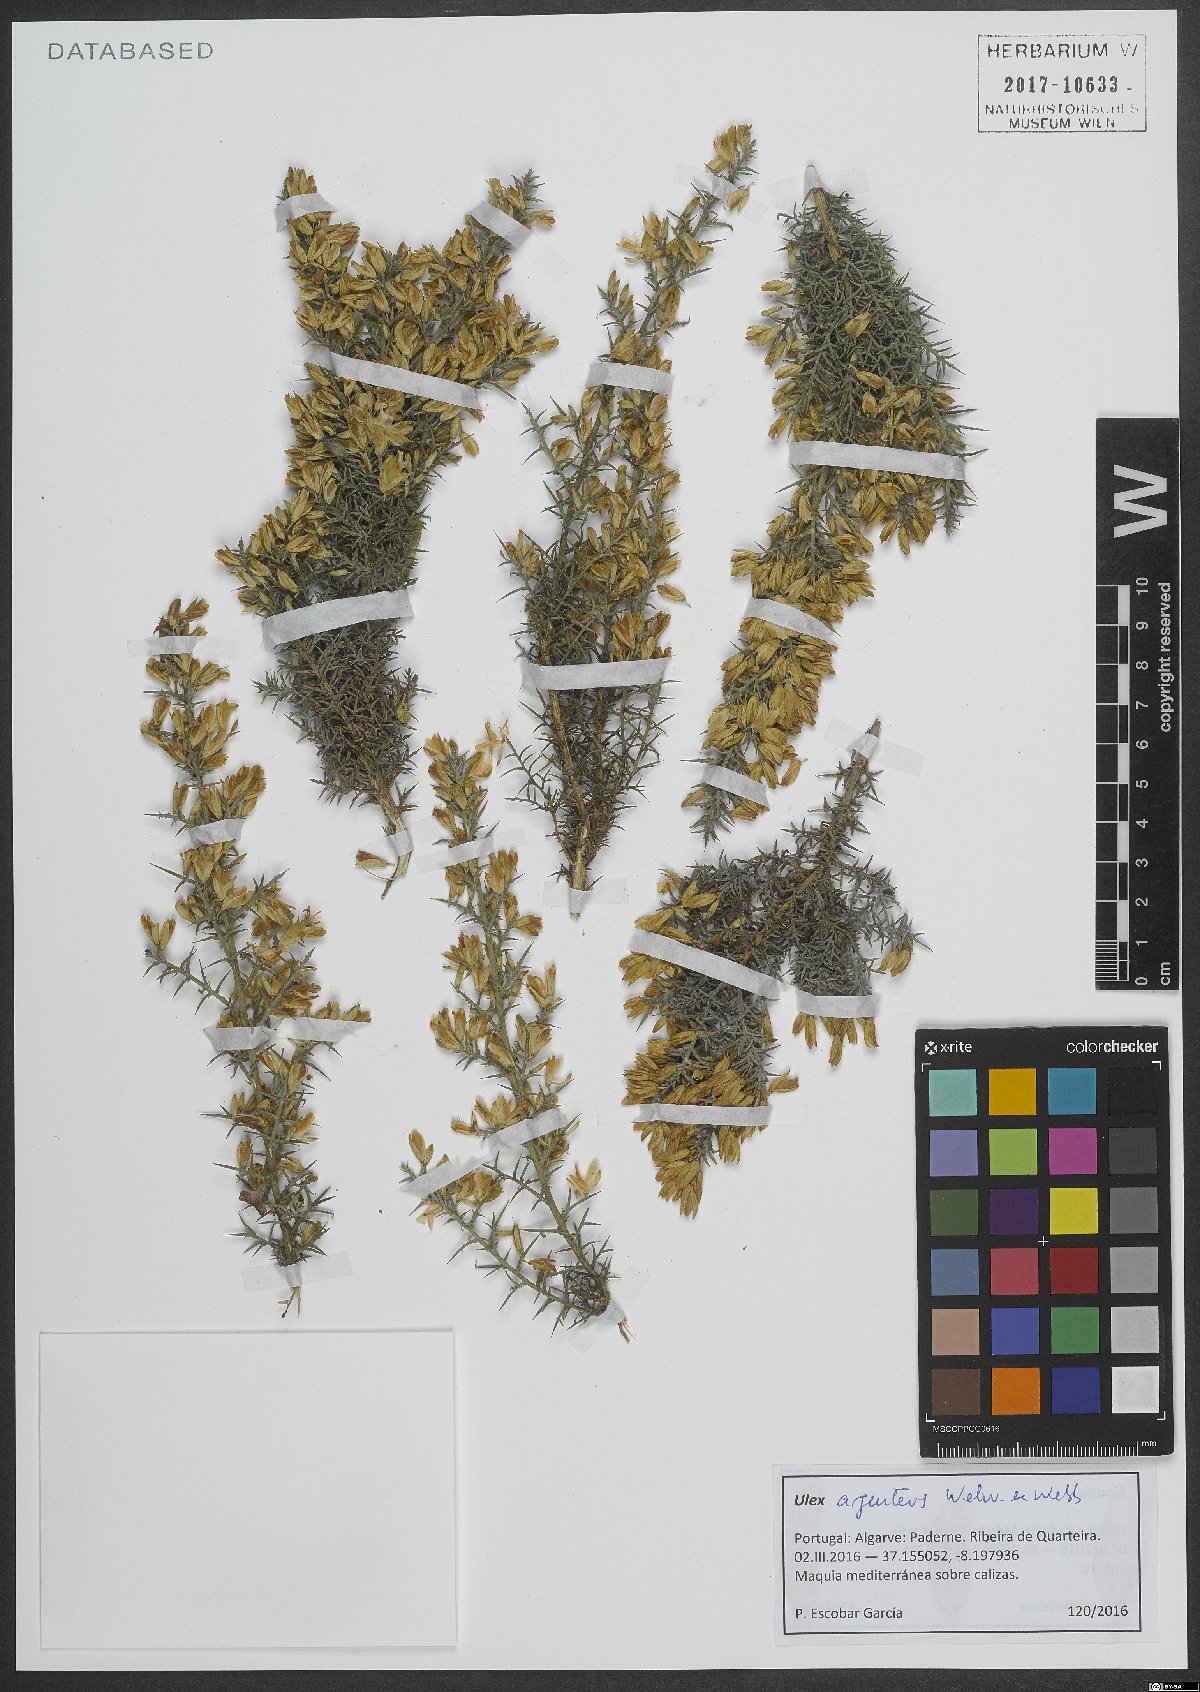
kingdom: Plantae
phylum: Tracheophyta
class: Magnoliopsida
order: Fabales
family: Fabaceae
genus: Ulex
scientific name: Ulex argenteus
